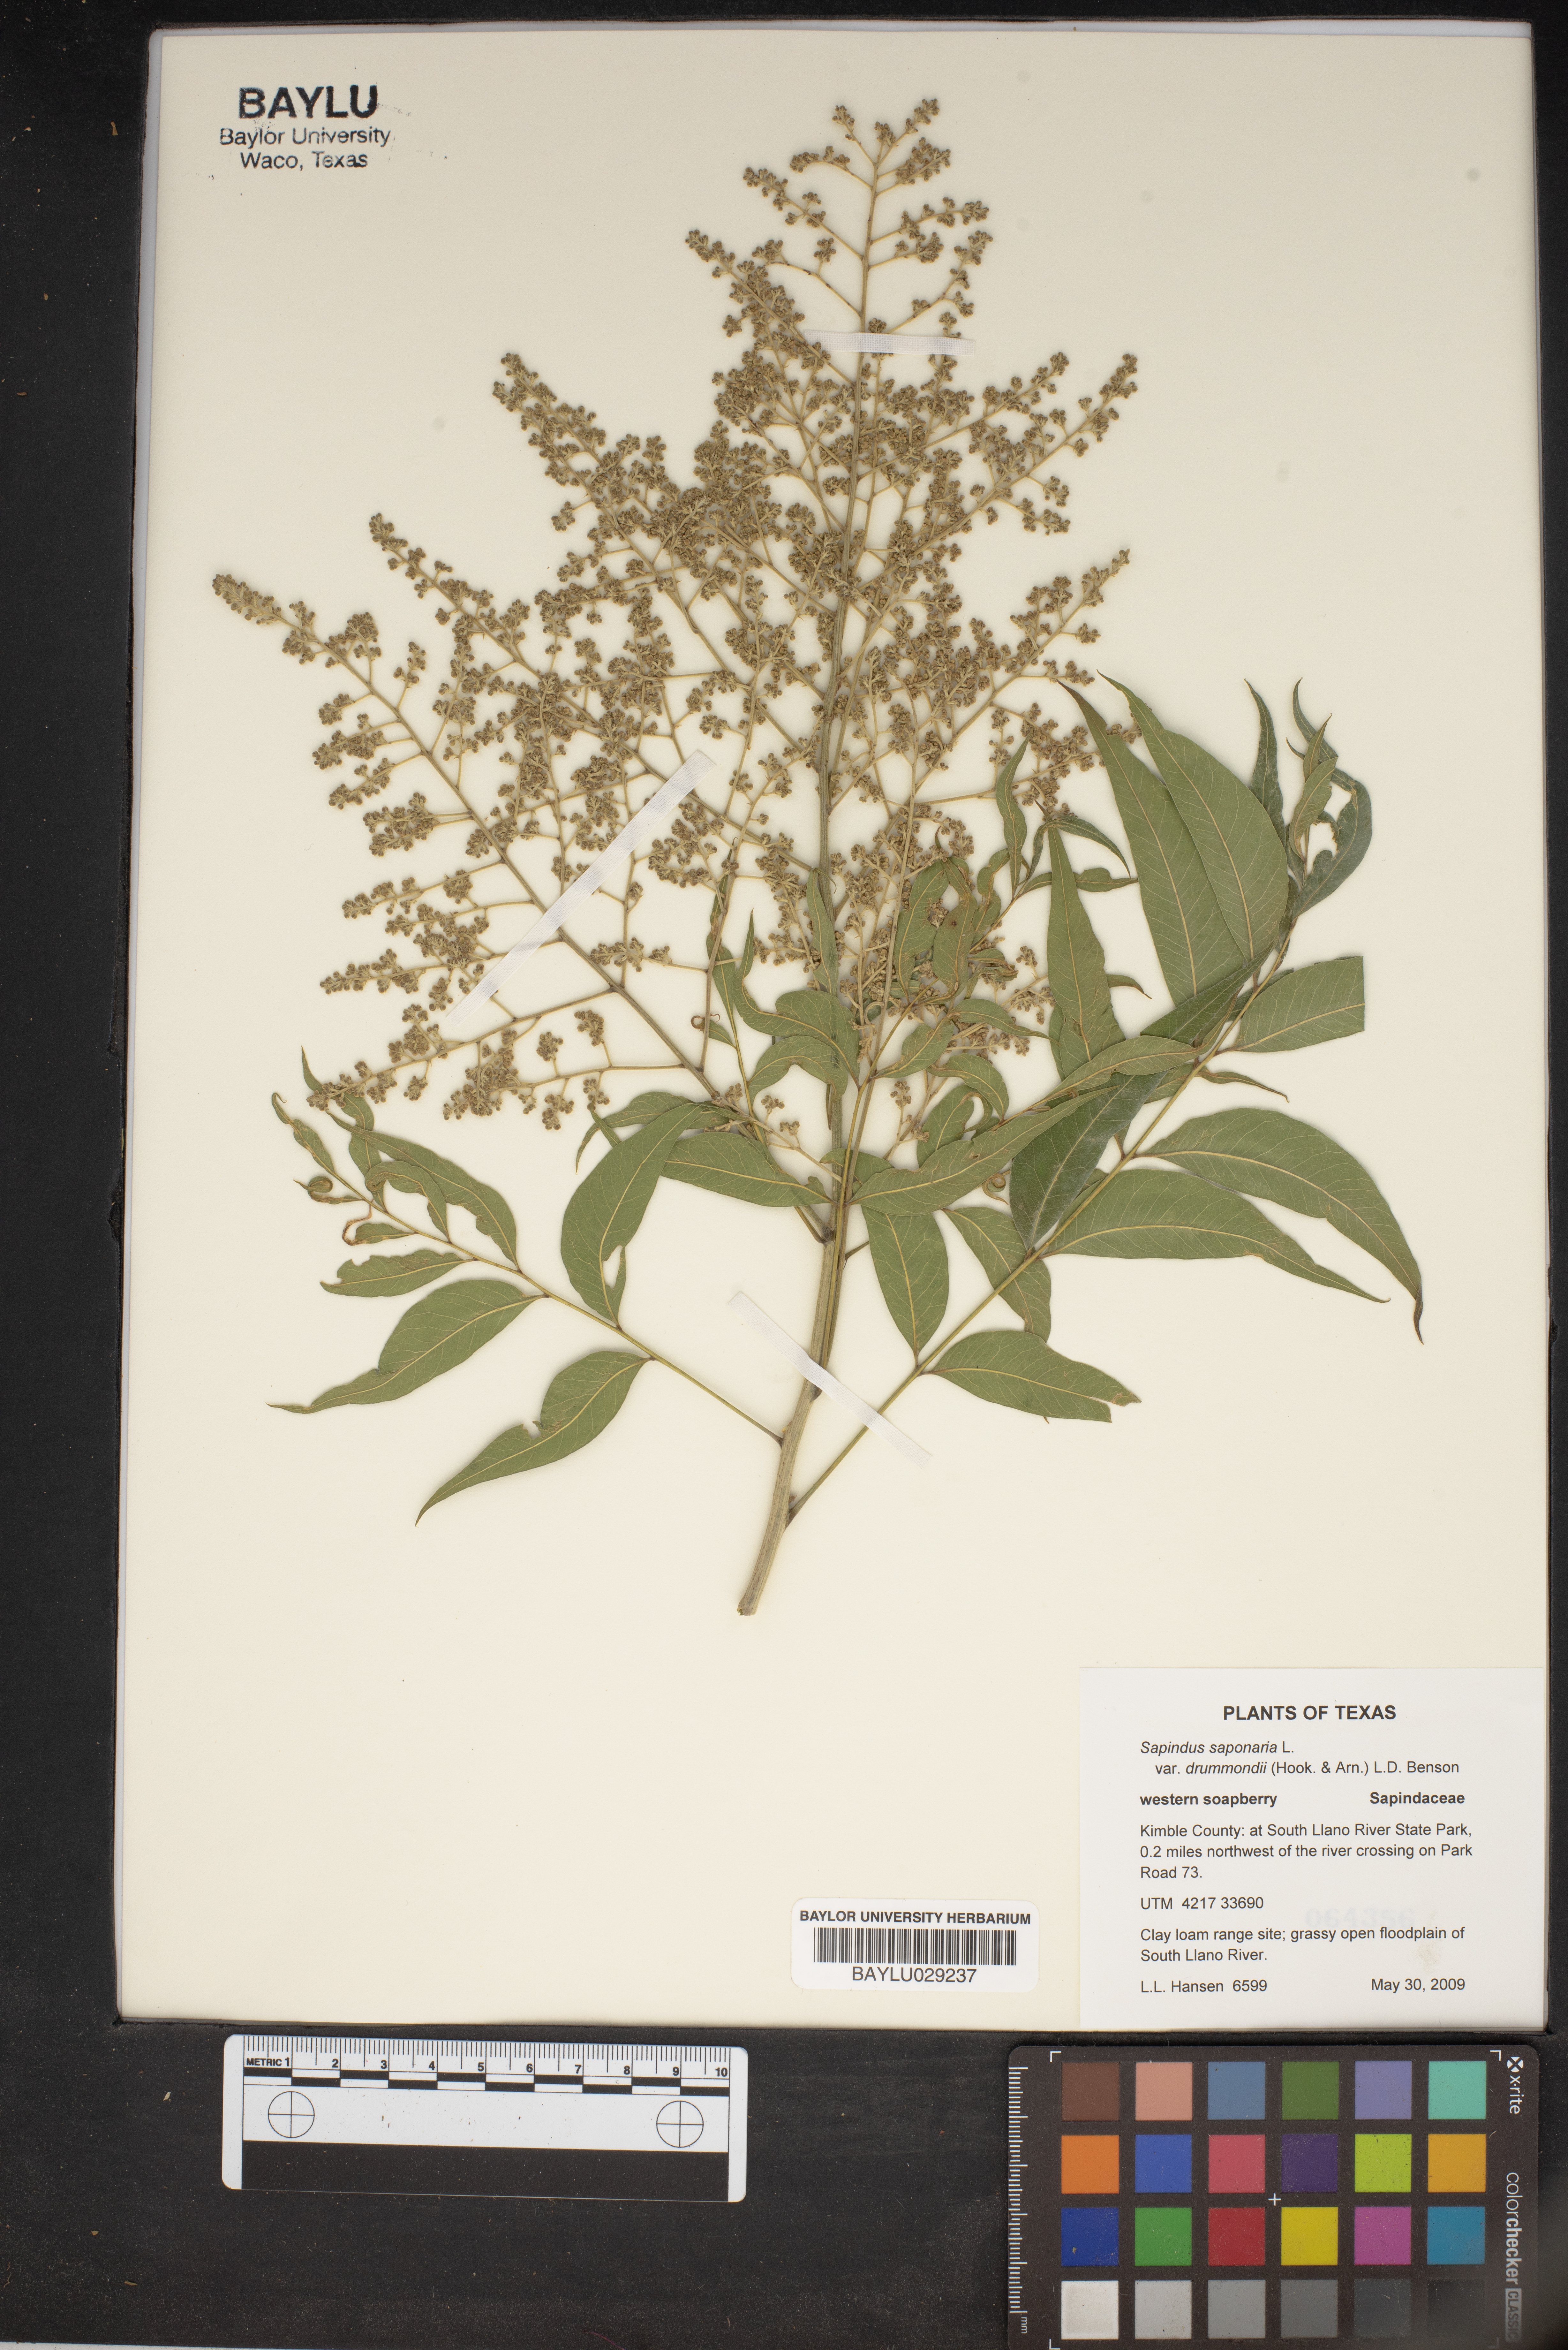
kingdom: Plantae
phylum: Tracheophyta
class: Magnoliopsida
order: Sapindales
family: Sapindaceae
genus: Sapindus
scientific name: Sapindus drummondii
